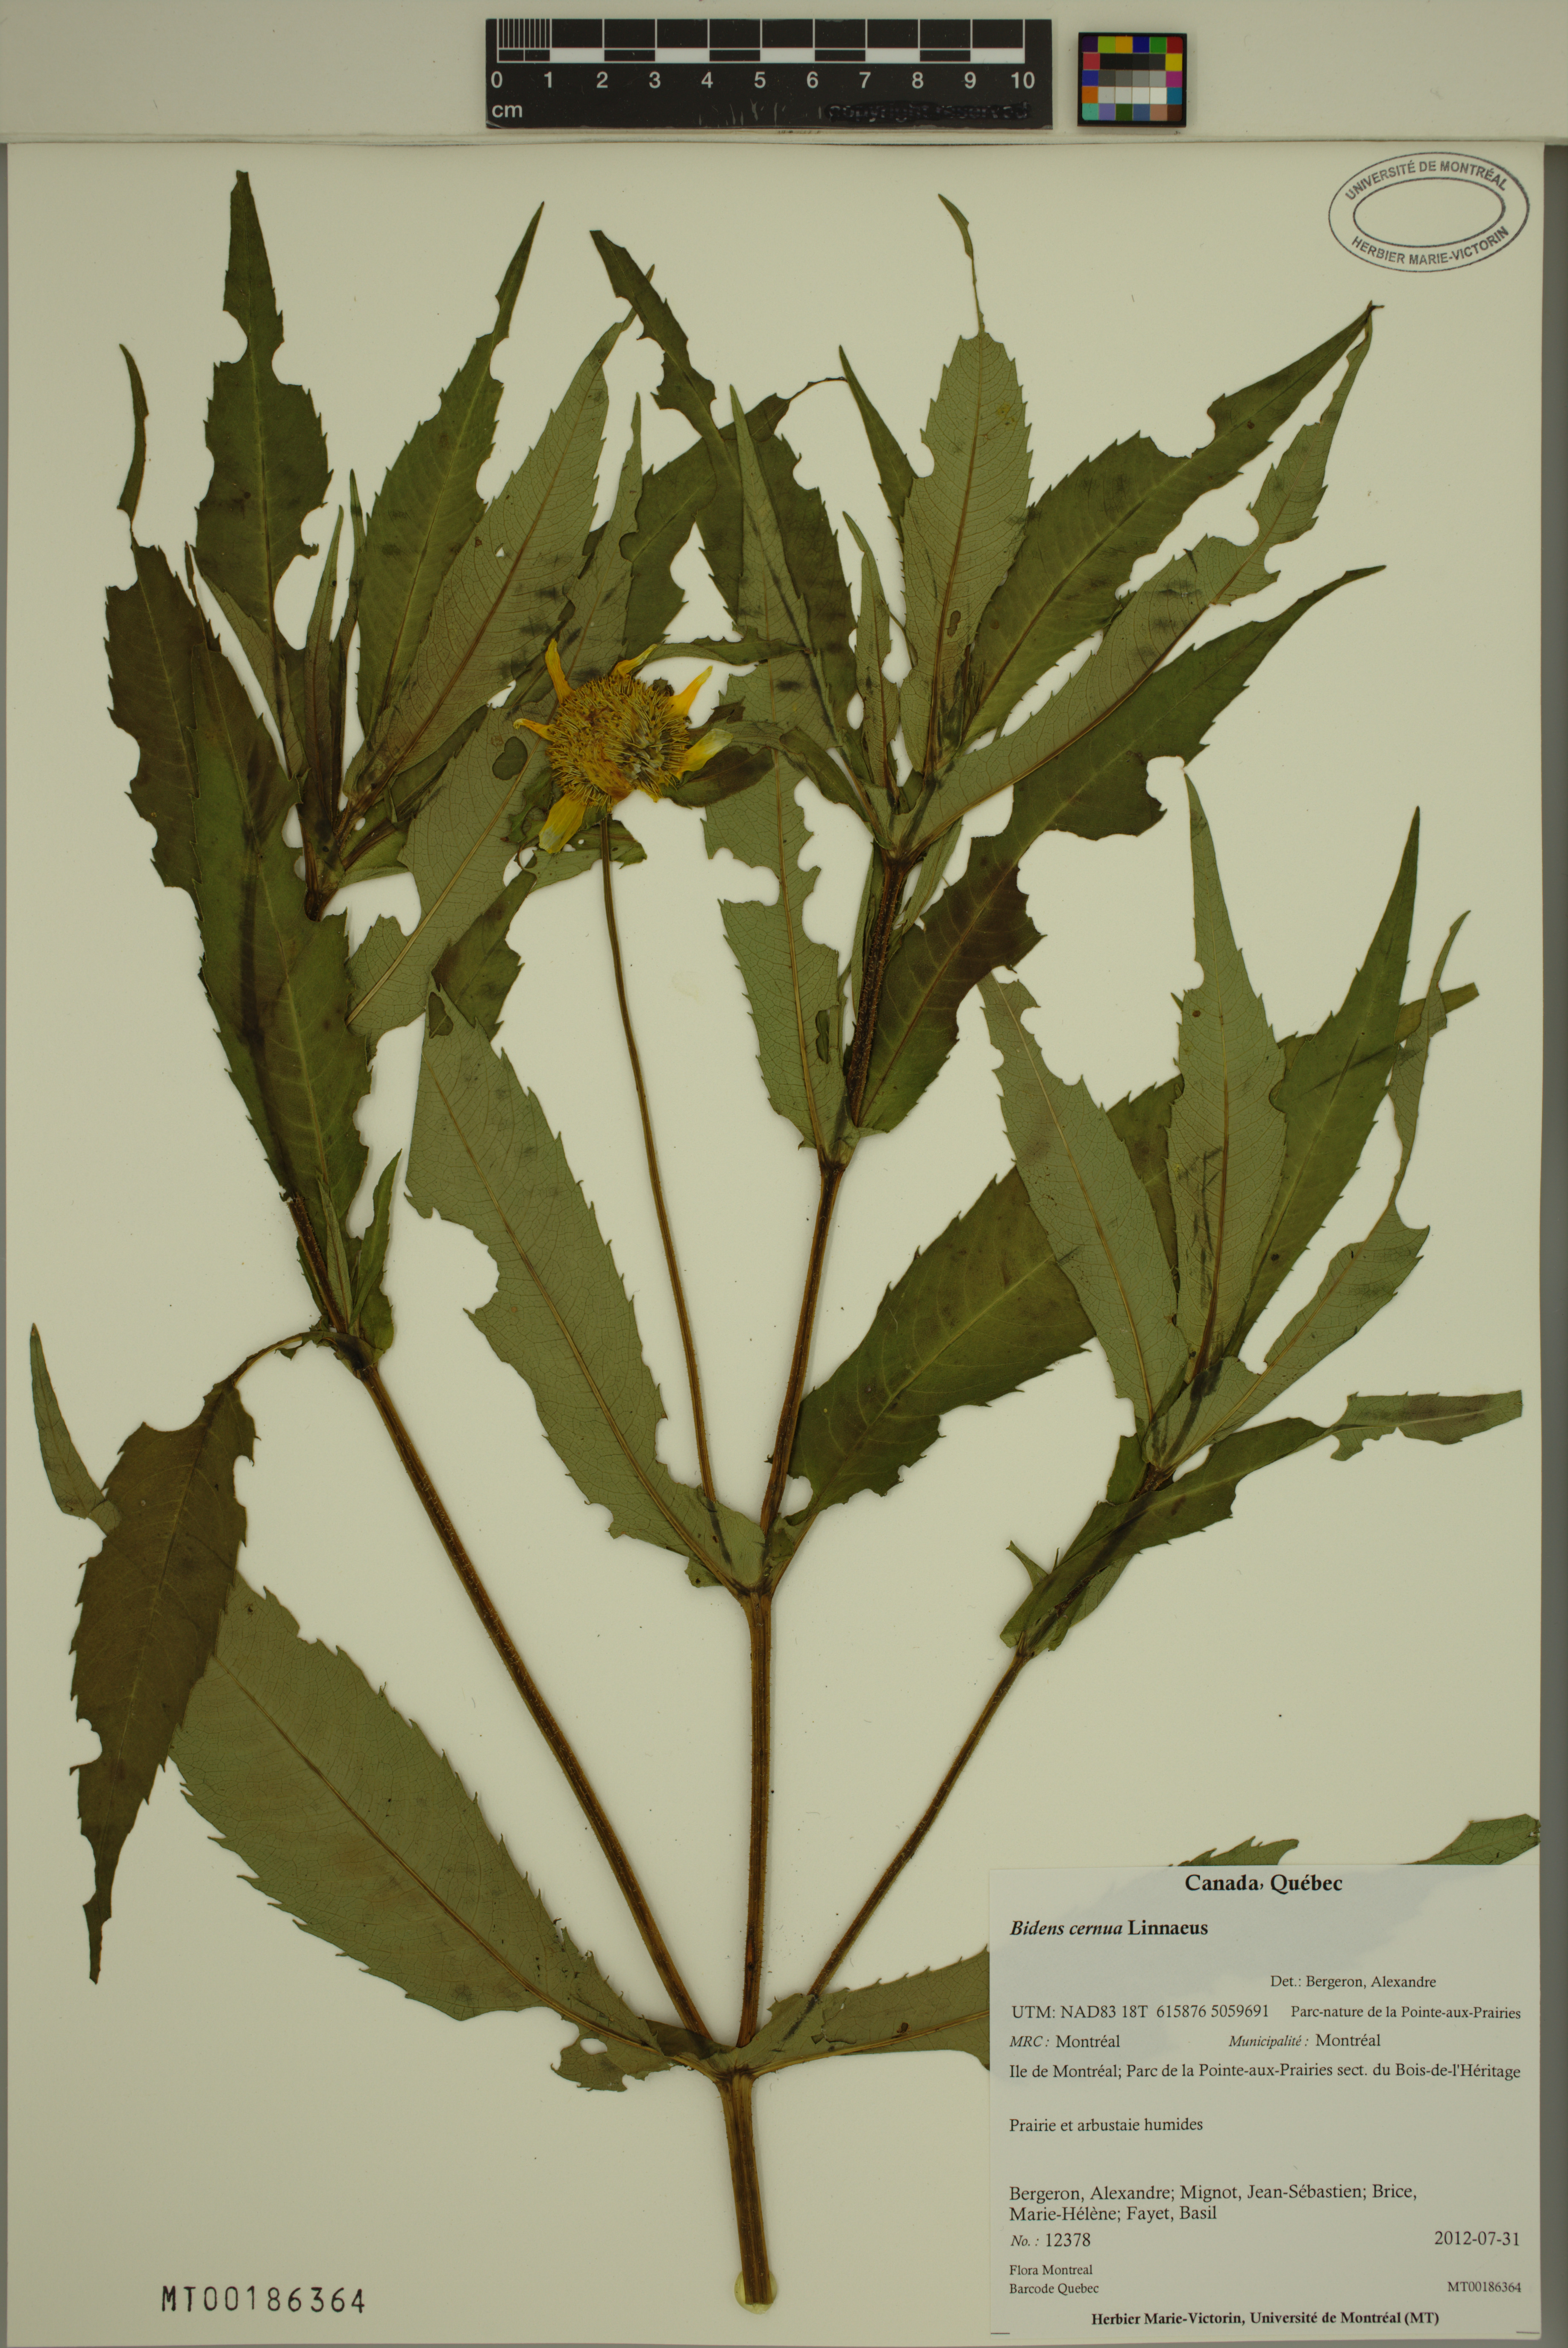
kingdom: Plantae
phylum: Tracheophyta
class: Magnoliopsida
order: Asterales
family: Asteraceae
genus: Bidens
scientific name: Bidens cernua
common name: Nodding bur-marigold
